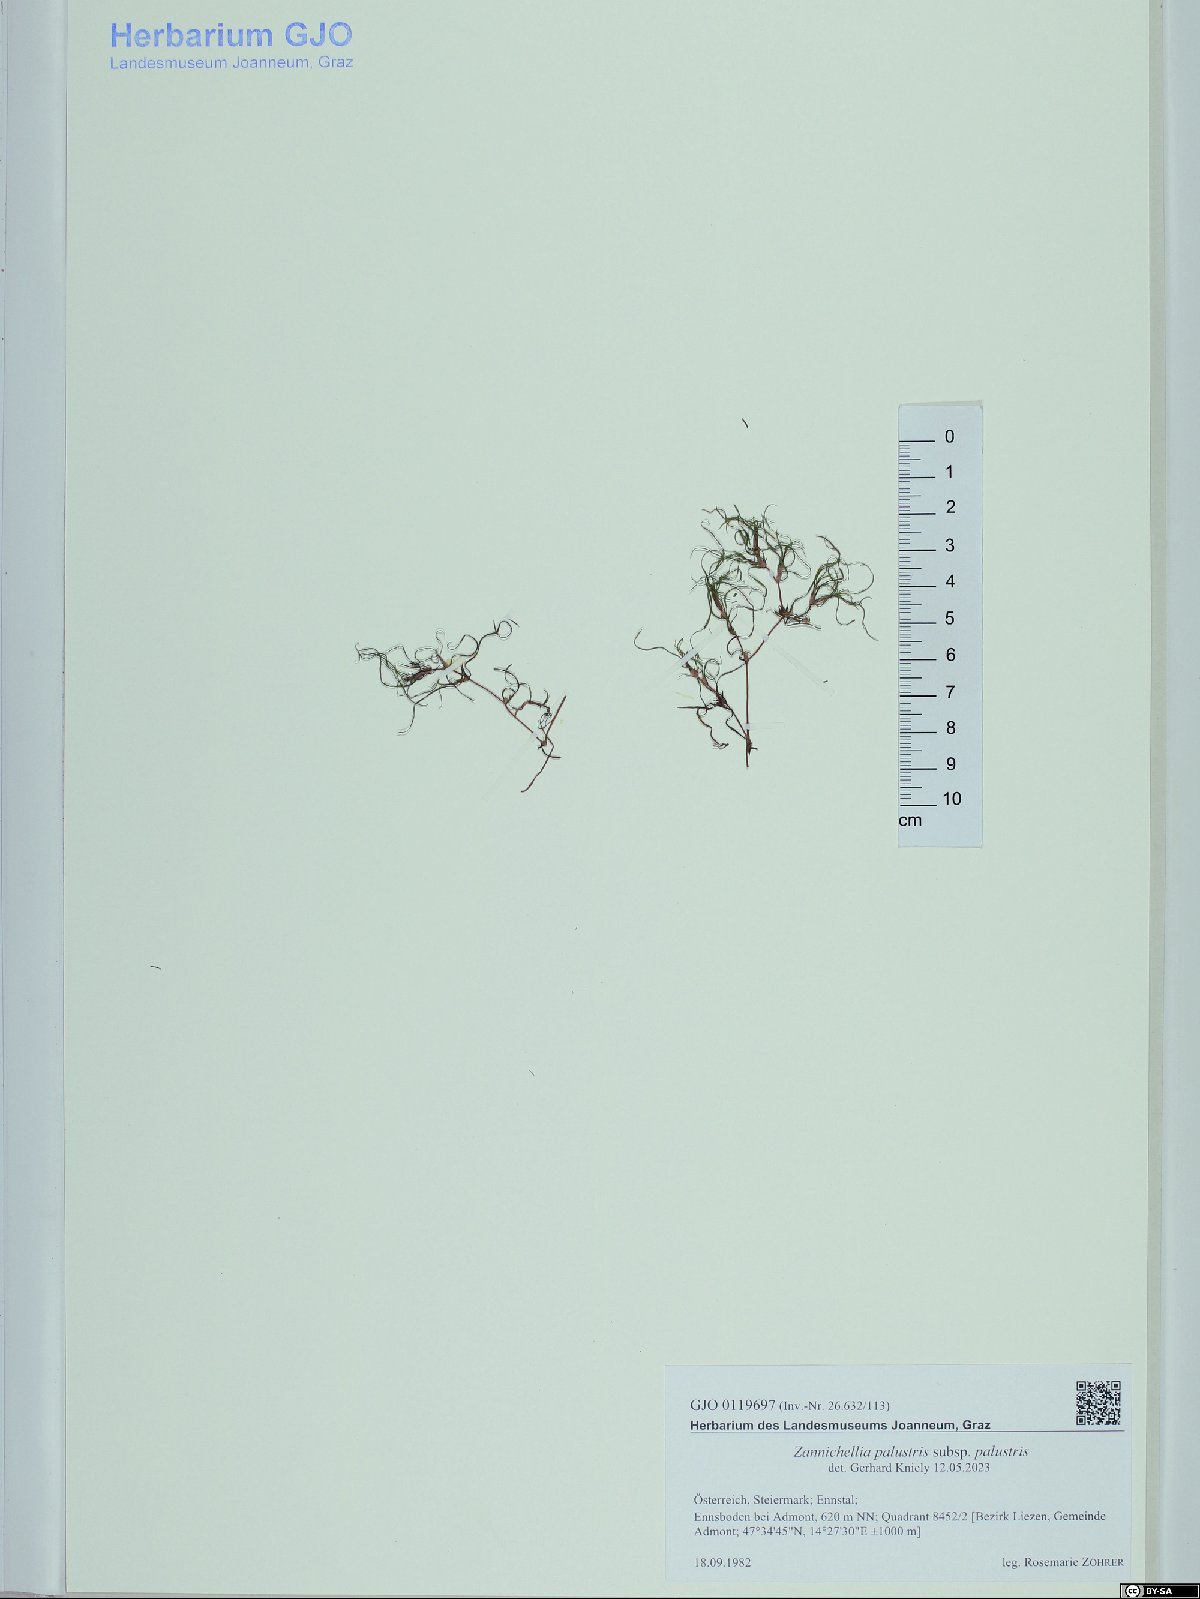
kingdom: Plantae
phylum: Tracheophyta
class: Liliopsida
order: Alismatales
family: Potamogetonaceae
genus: Zannichellia
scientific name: Zannichellia palustris
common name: Horned pondweed
